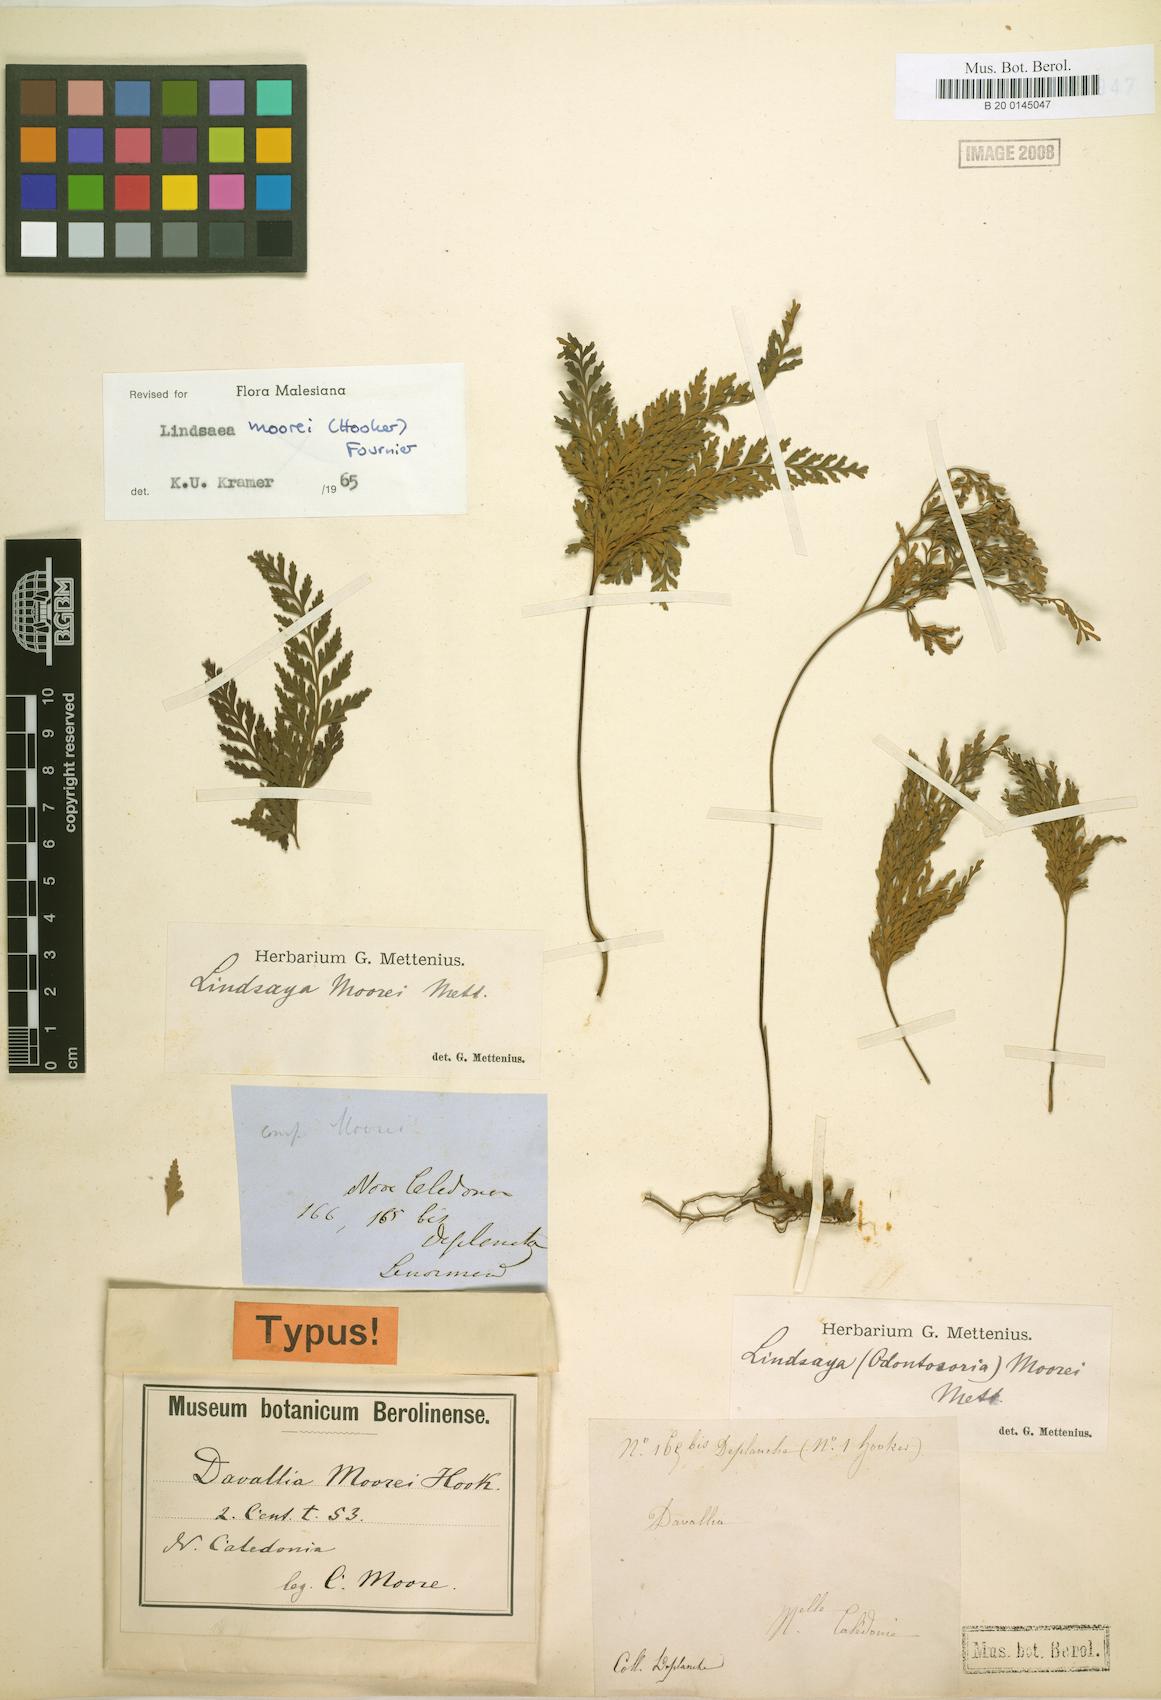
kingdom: Plantae
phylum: Tracheophyta
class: Polypodiopsida
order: Polypodiales
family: Lindsaeaceae
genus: Tapeinidium
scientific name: Tapeinidium moorei
